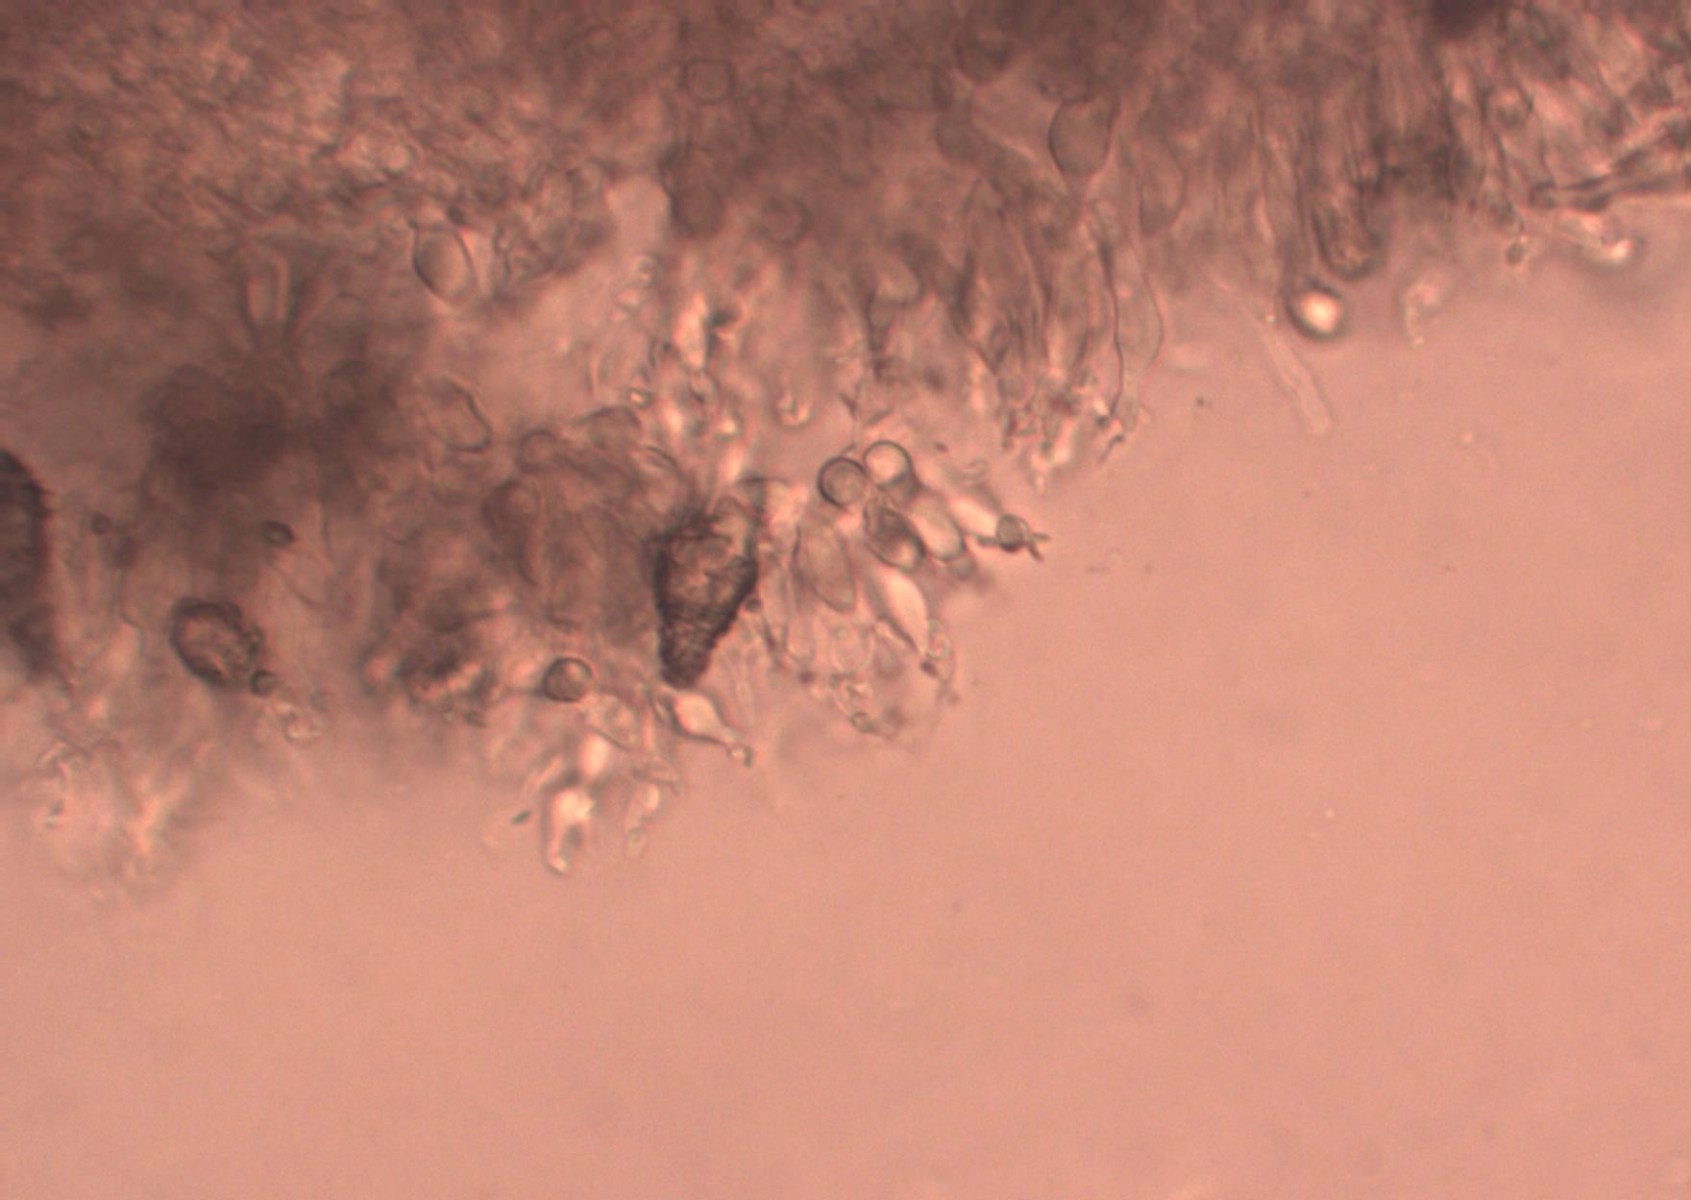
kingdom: Fungi
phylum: Basidiomycota
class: Agaricomycetes
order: Agaricales
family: Pleurotaceae
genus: Hohenbuehelia
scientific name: Hohenbuehelia
